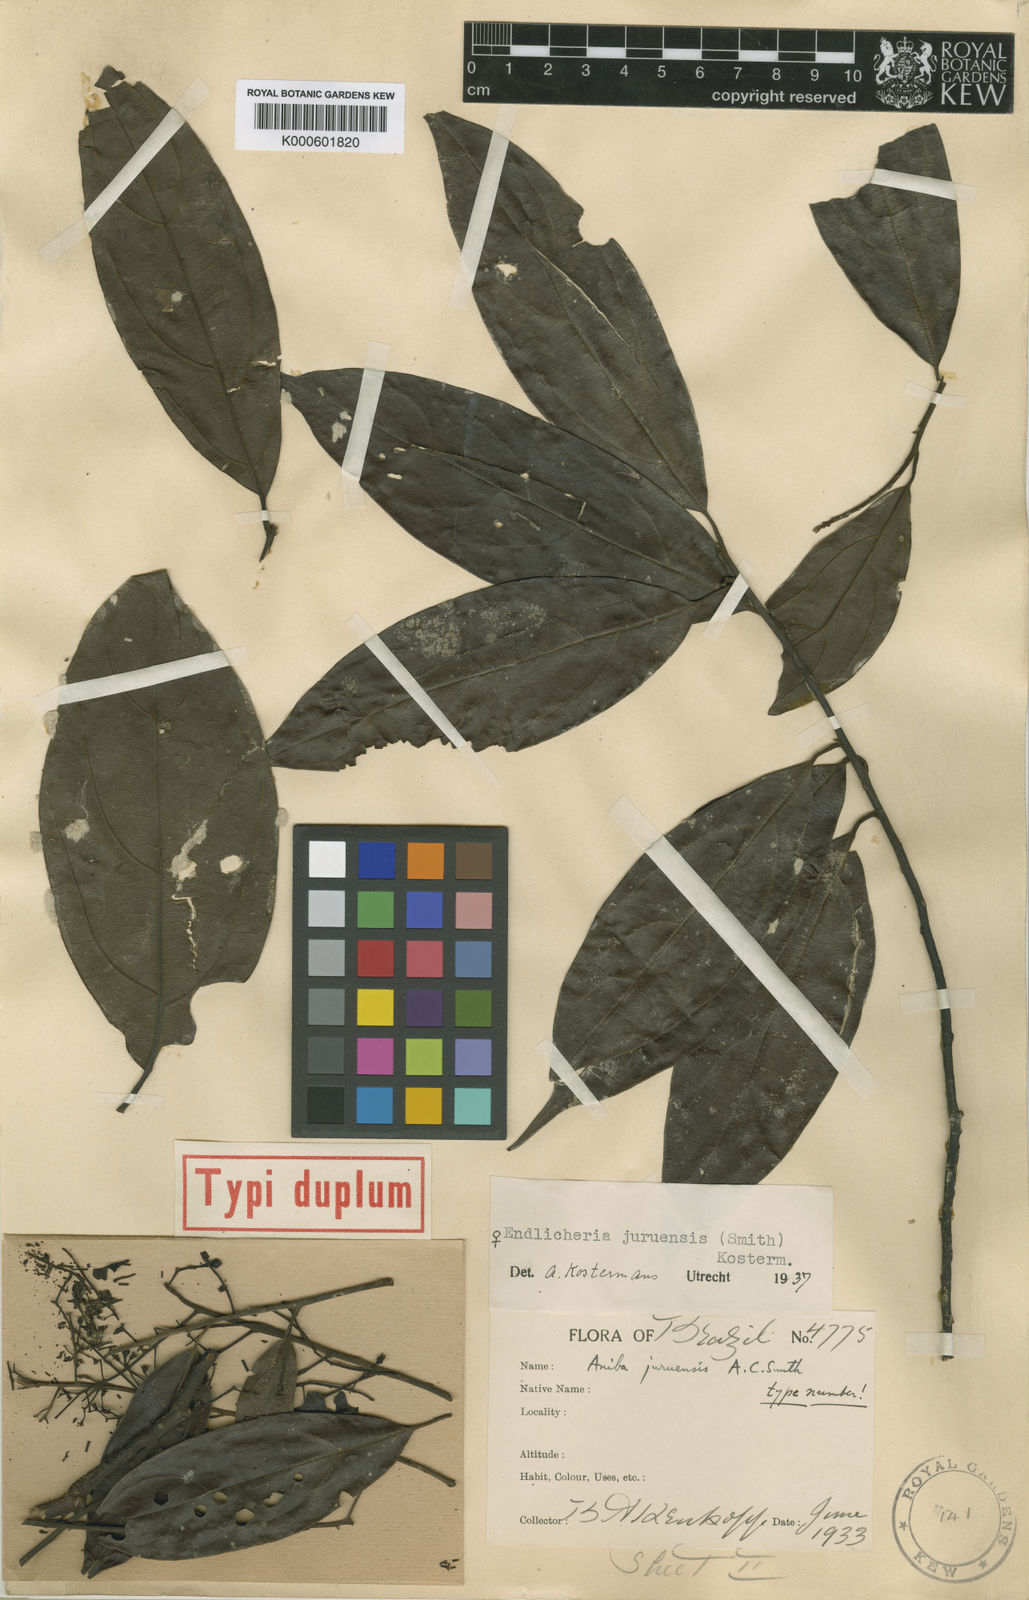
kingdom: Plantae
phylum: Tracheophyta
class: Magnoliopsida
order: Laurales
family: Lauraceae
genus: Rhodostemonodaphne
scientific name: Rhodostemonodaphne juruensis
